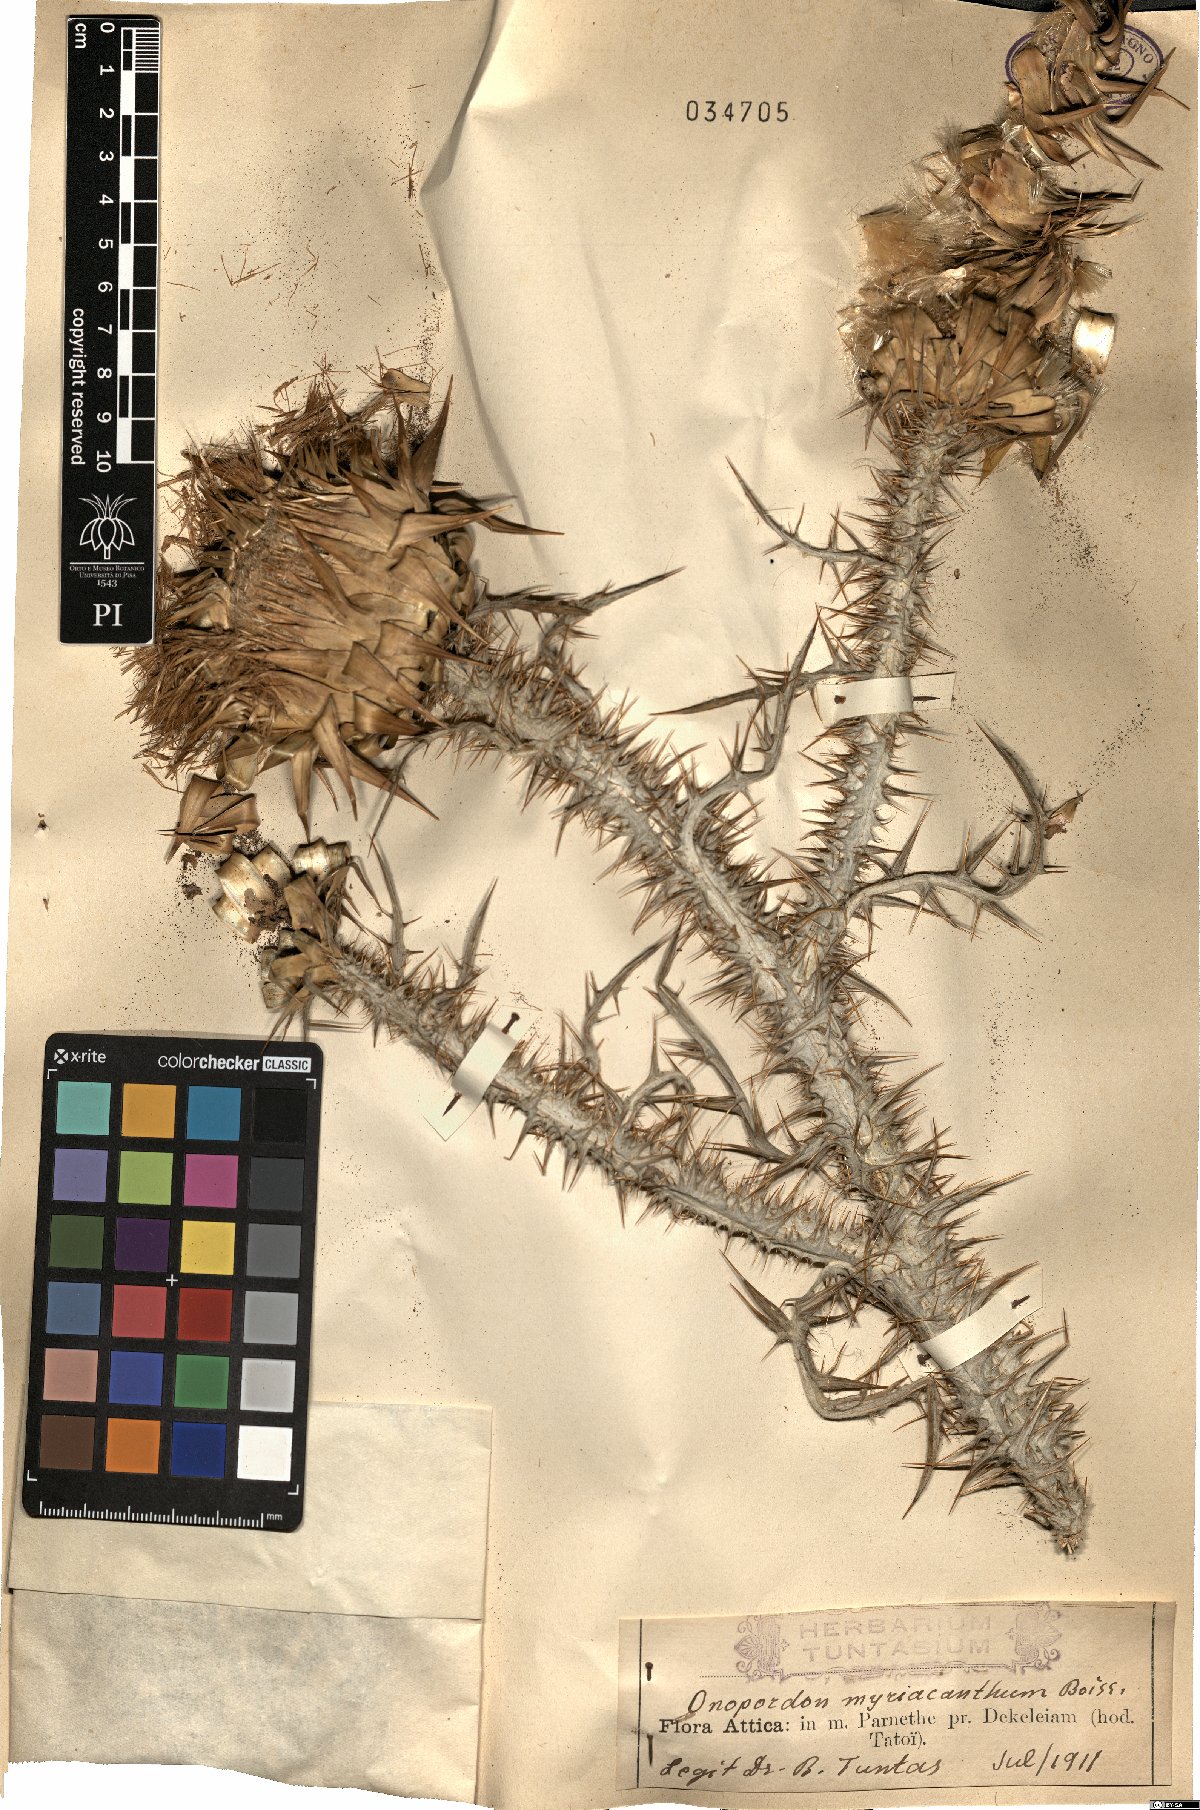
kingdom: Plantae
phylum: Tracheophyta
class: Magnoliopsida
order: Asterales
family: Asteraceae
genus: Onopordum
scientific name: Onopordum myriacanthum
